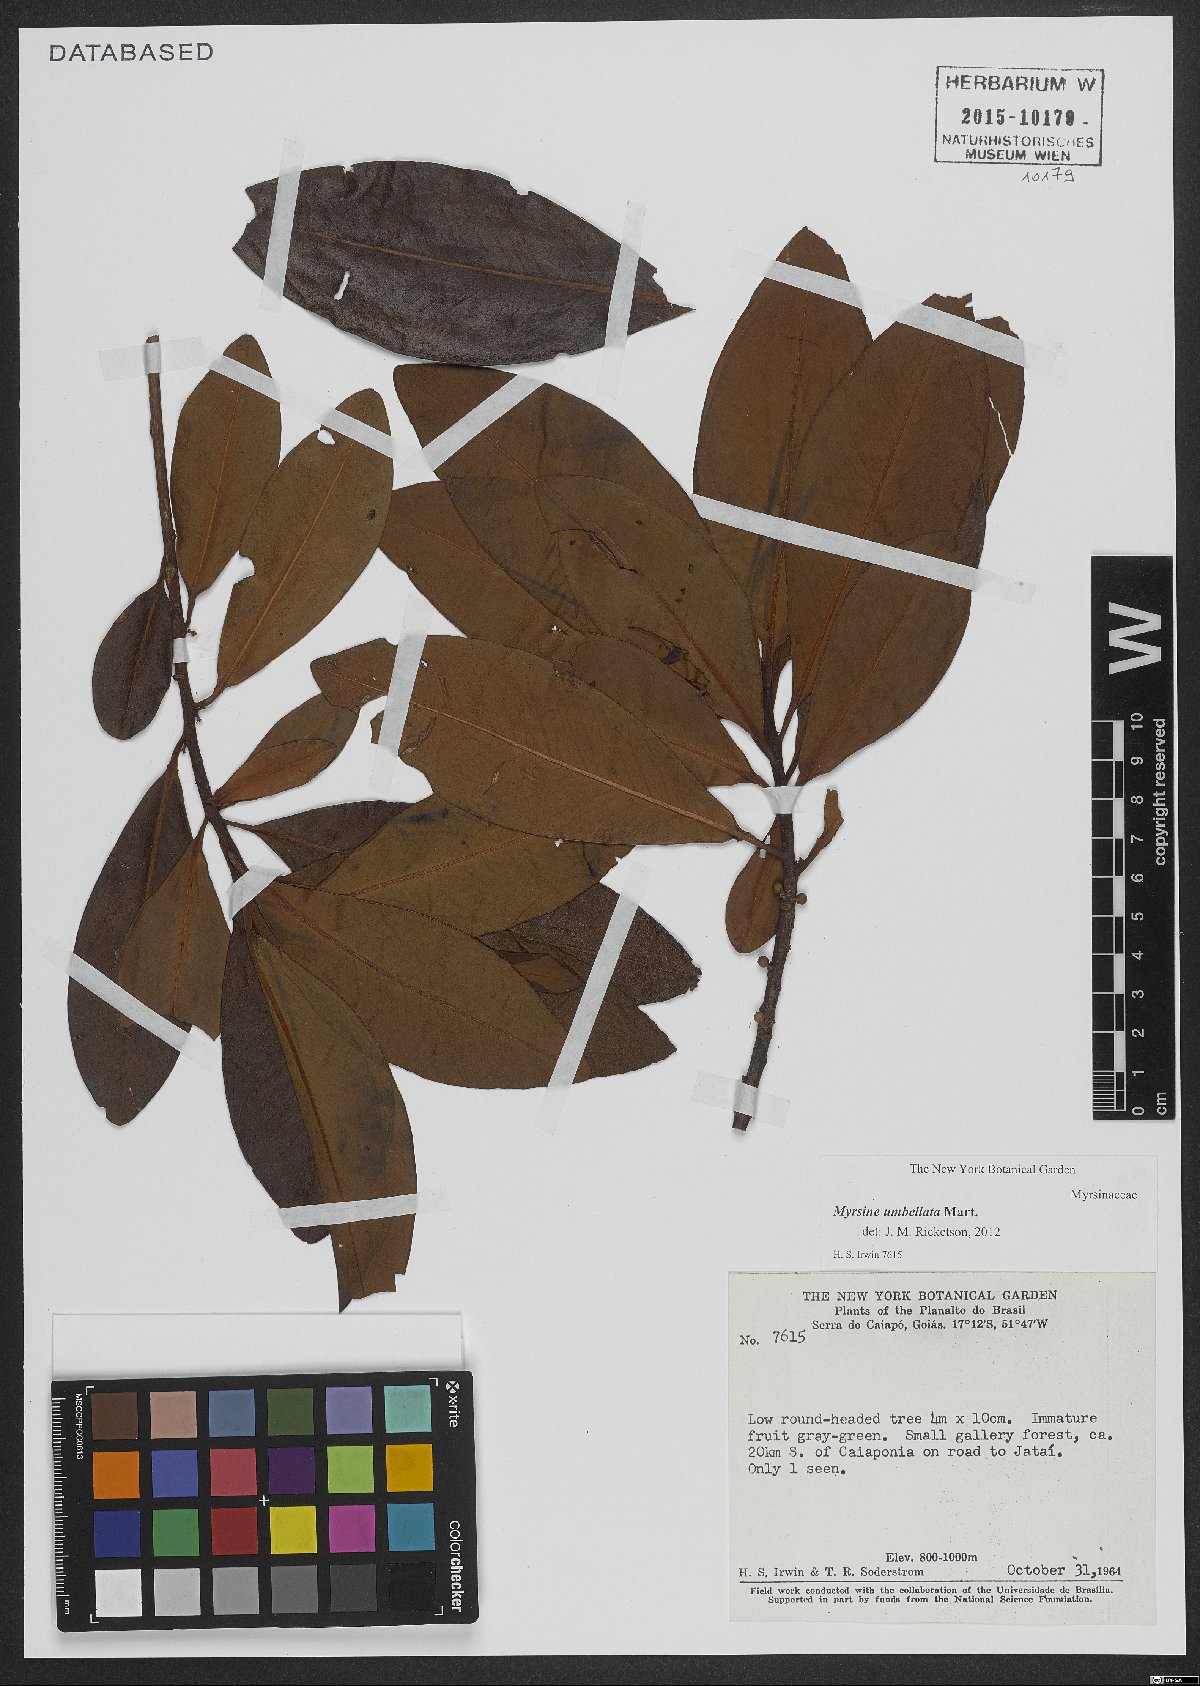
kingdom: Plantae
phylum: Tracheophyta
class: Magnoliopsida
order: Ericales
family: Primulaceae
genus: Myrsine
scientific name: Myrsine umbellata
